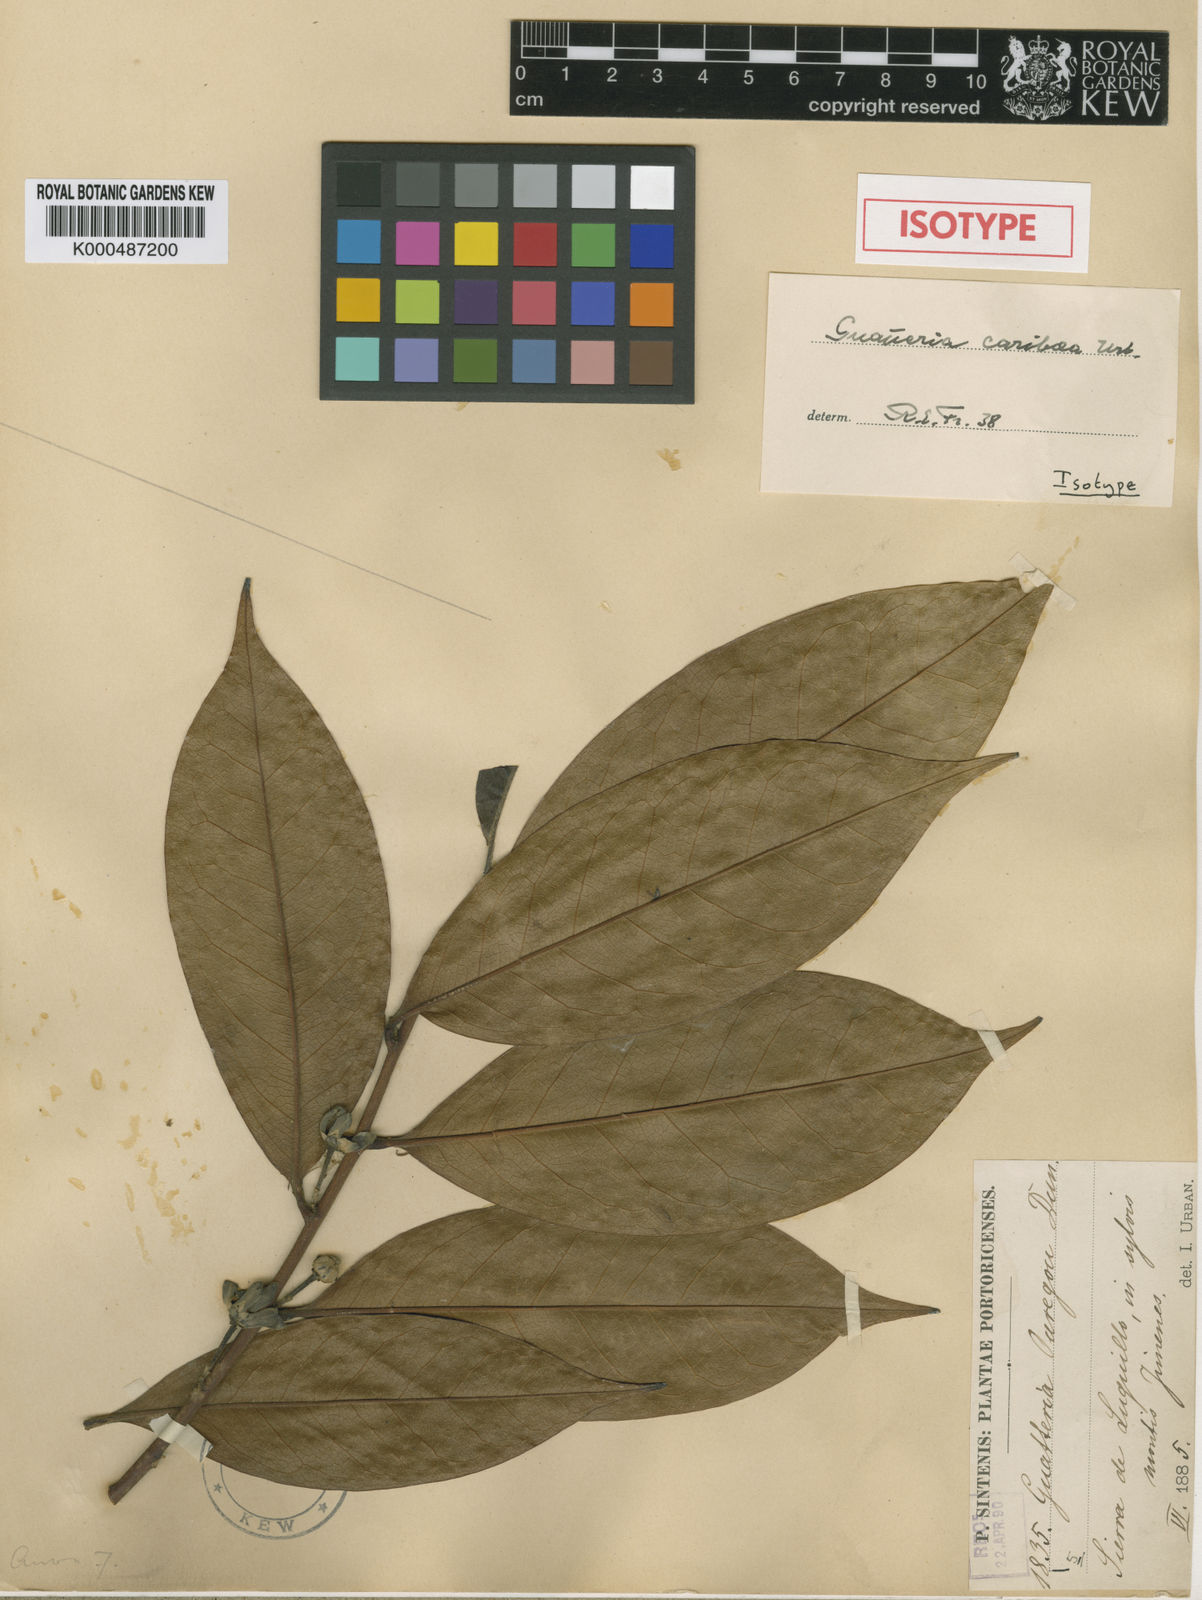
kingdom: Plantae
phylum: Tracheophyta
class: Magnoliopsida
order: Magnoliales
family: Annonaceae
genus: Guatteria
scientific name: Guatteria caribaea
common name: Wild soursop
